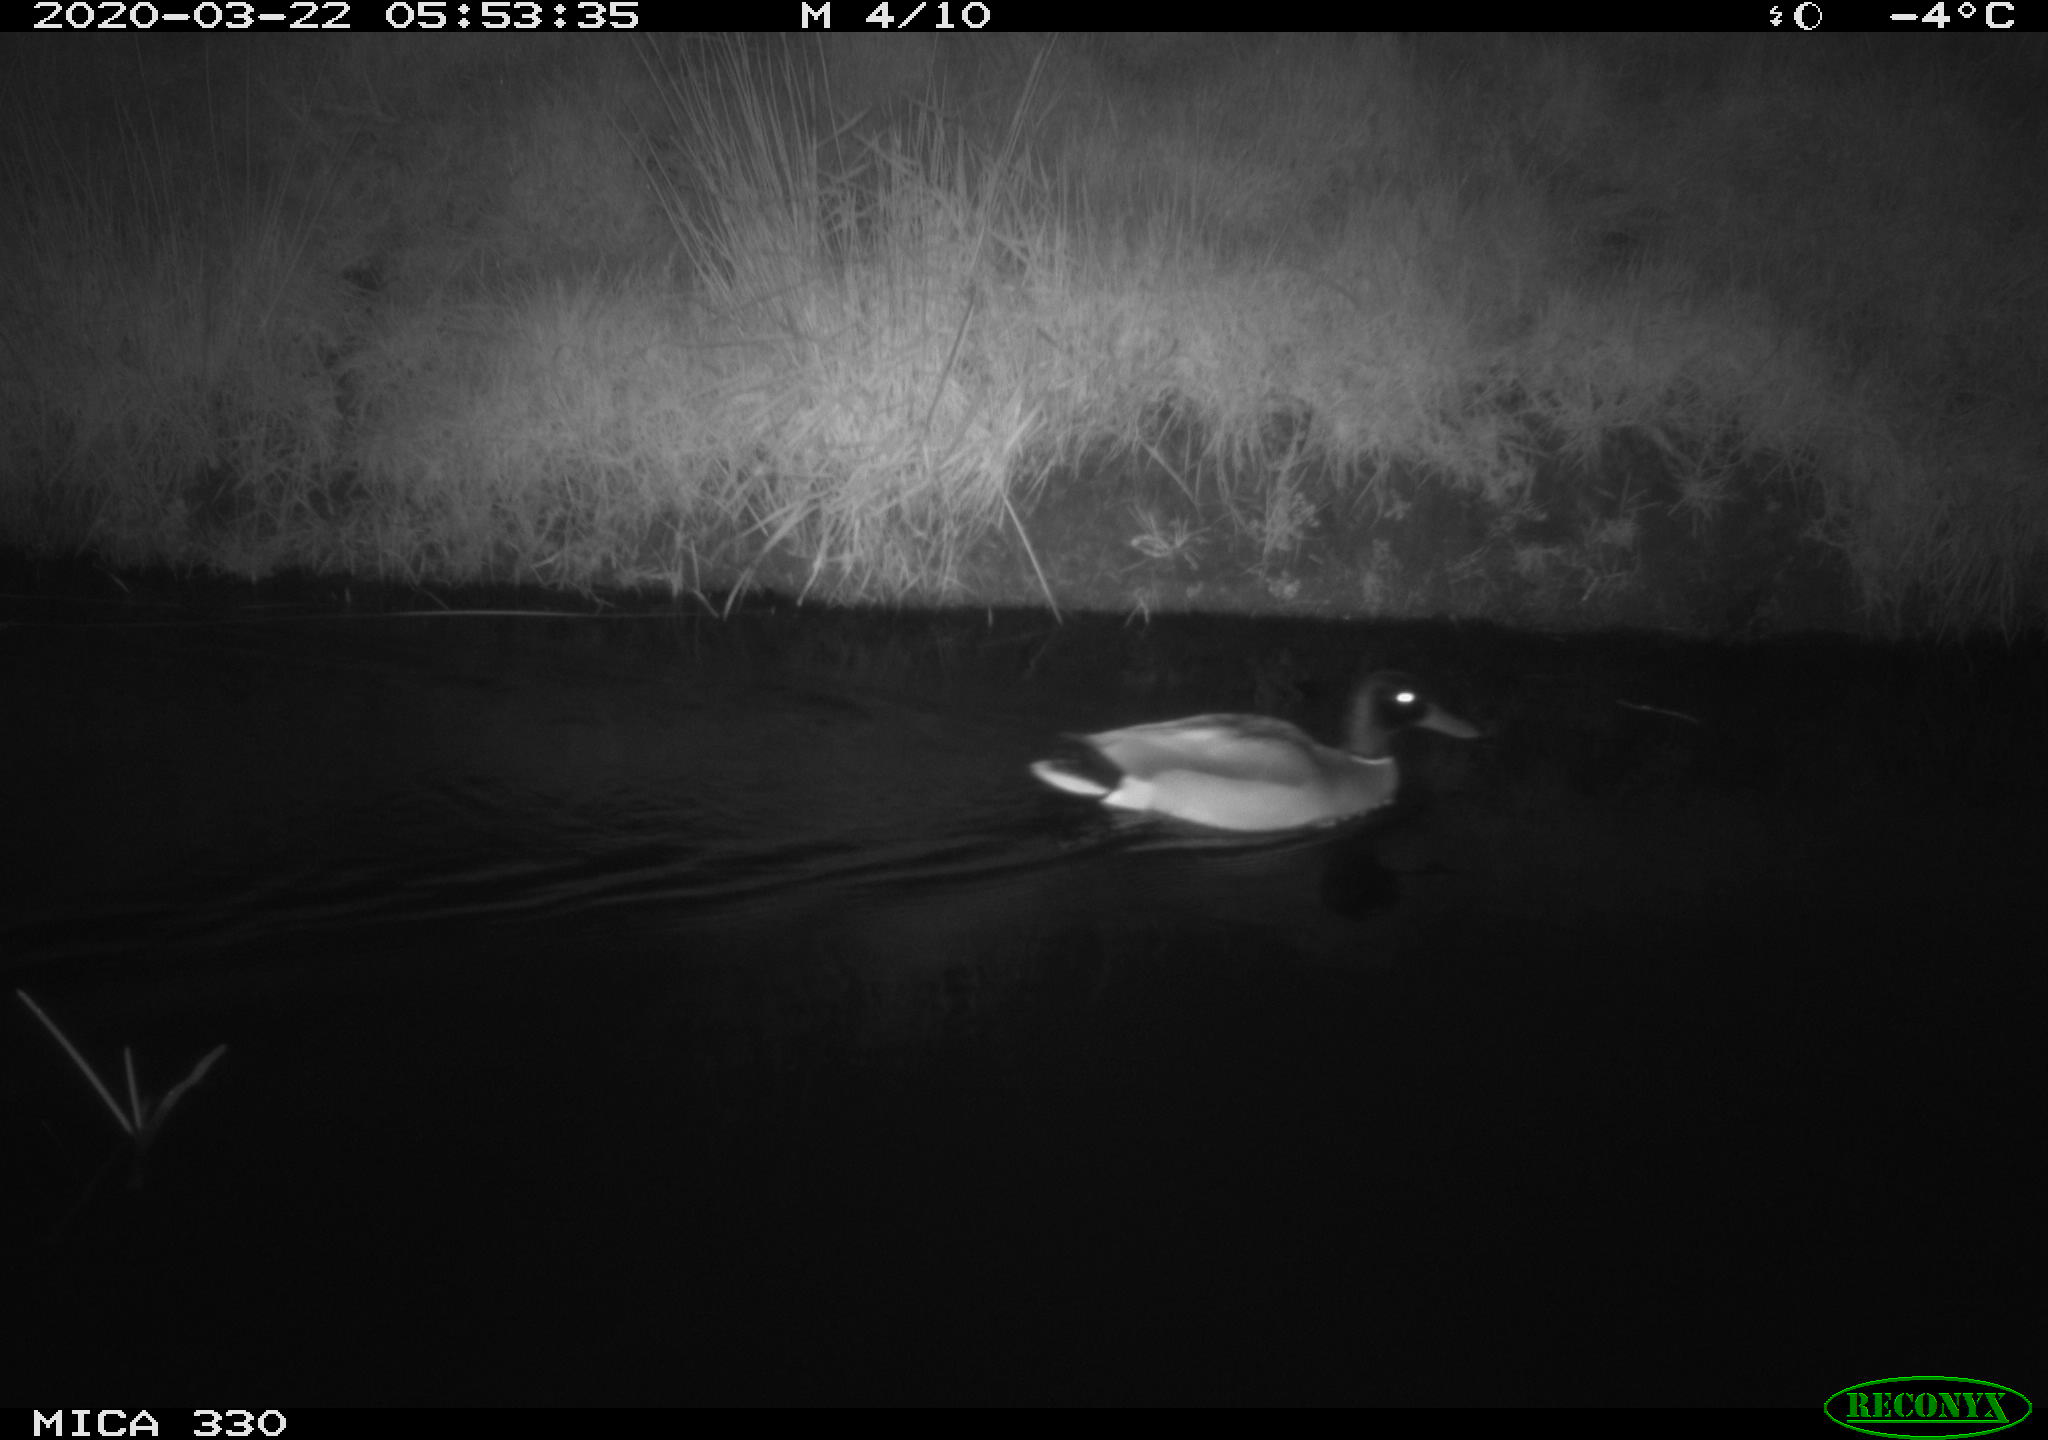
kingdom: Animalia
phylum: Chordata
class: Aves
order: Anseriformes
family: Anatidae
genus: Anas
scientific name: Anas platyrhynchos
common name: Mallard
